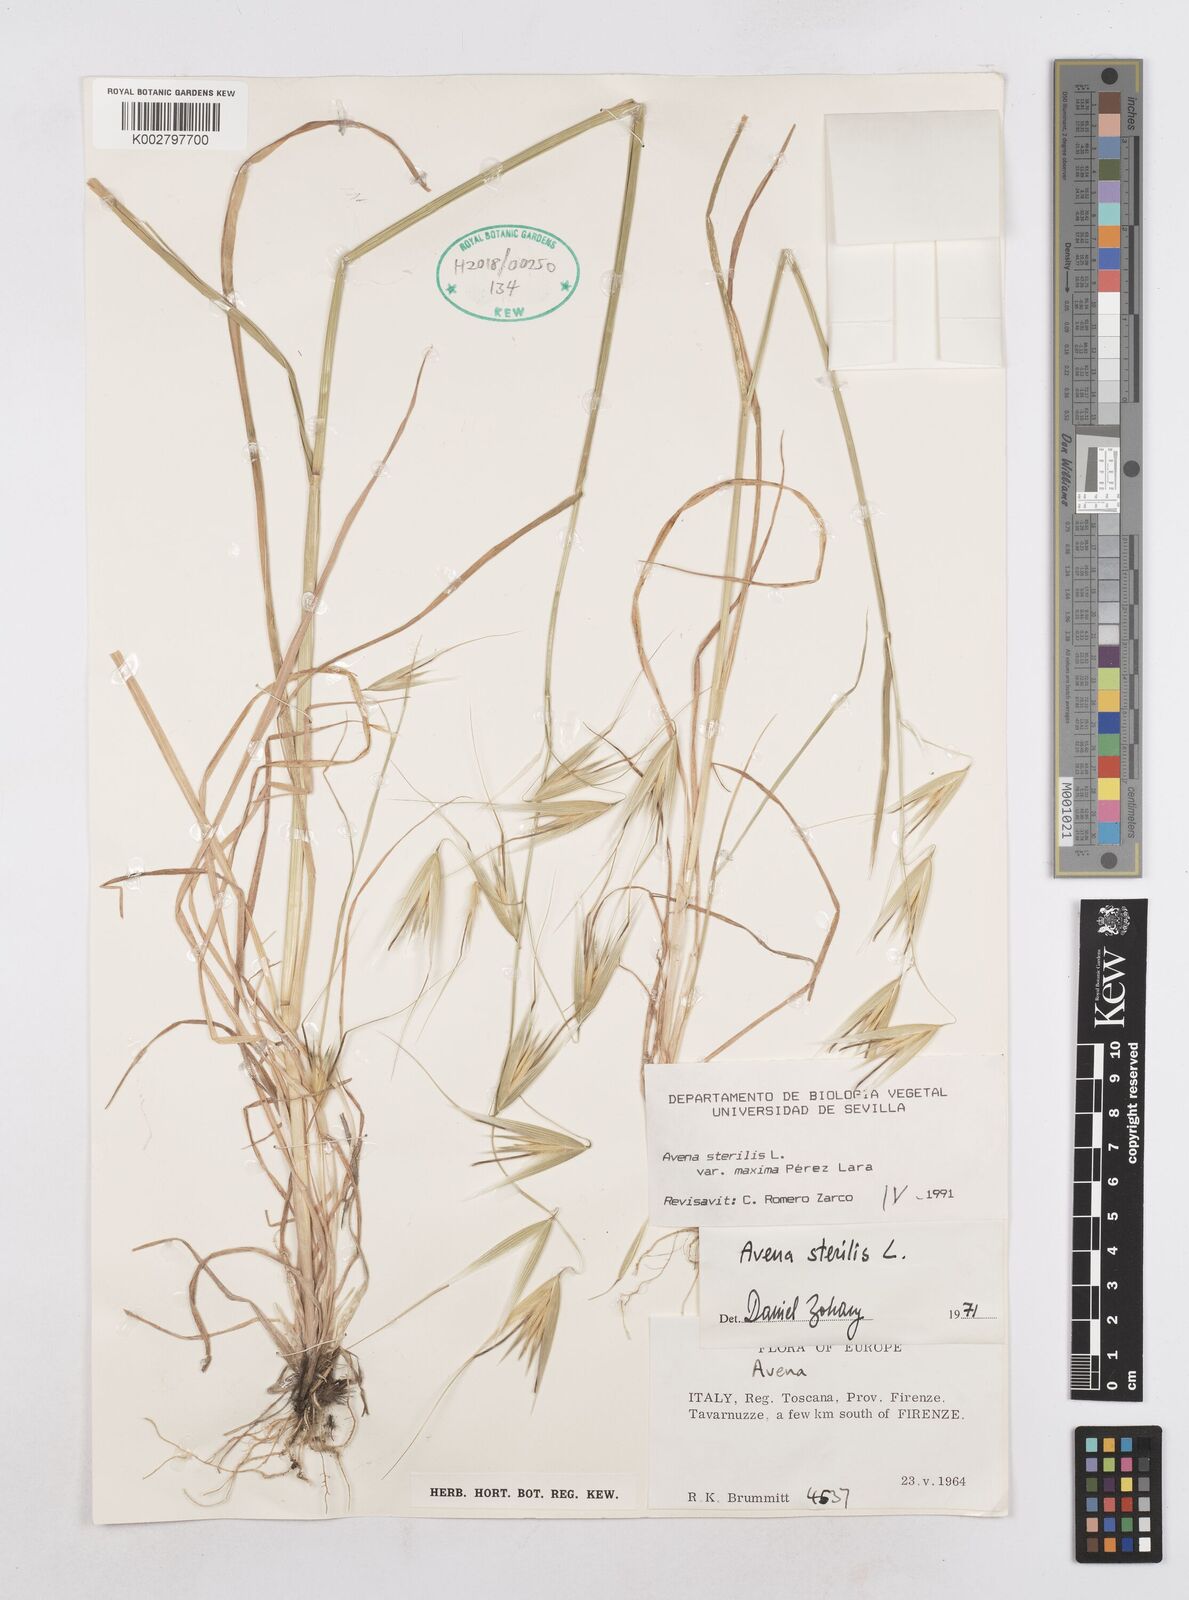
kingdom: Plantae
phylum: Tracheophyta
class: Liliopsida
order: Poales
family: Poaceae
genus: Avena
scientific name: Avena sterilis
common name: Animated oat
